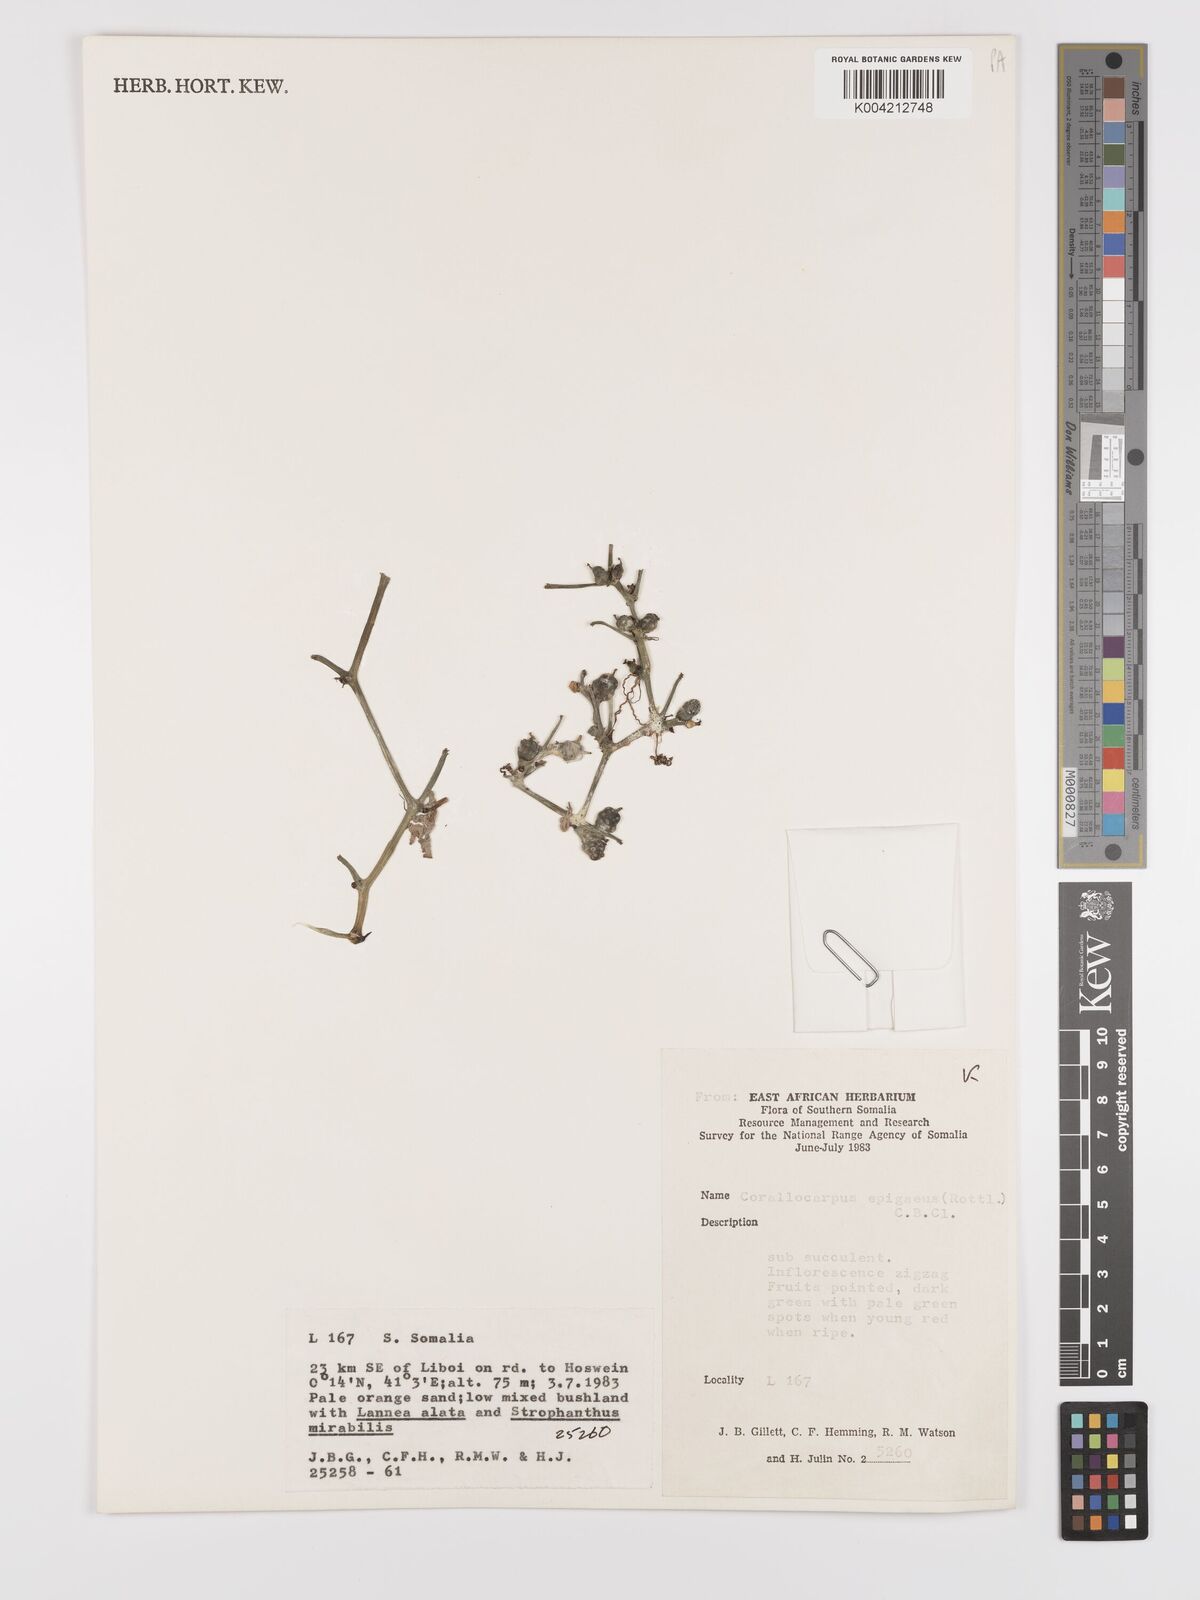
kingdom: Plantae
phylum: Tracheophyta
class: Magnoliopsida
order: Cucurbitales
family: Cucurbitaceae
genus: Corallocarpus
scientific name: Corallocarpus ellipticus
